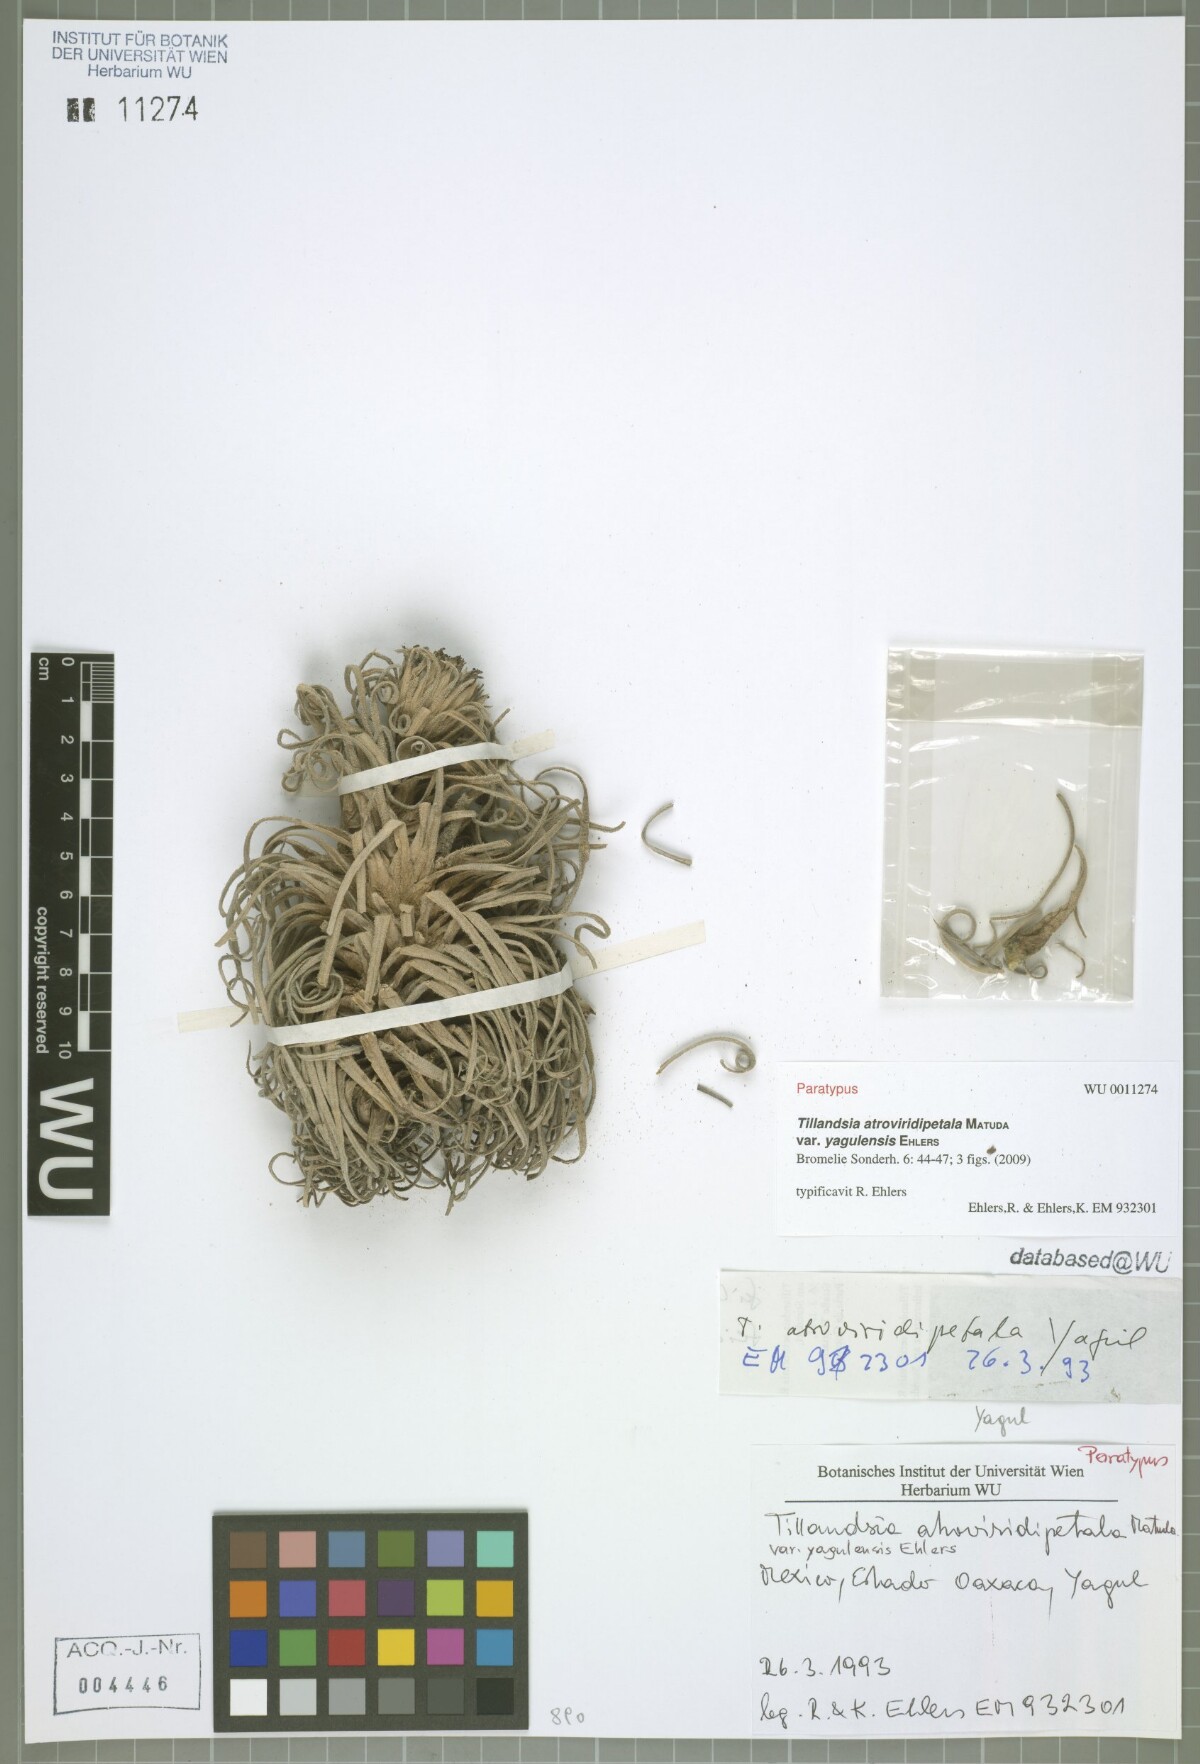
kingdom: Plantae
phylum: Tracheophyta
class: Liliopsida
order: Poales
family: Bromeliaceae
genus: Tillandsia
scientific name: Tillandsia atroviridipetala
